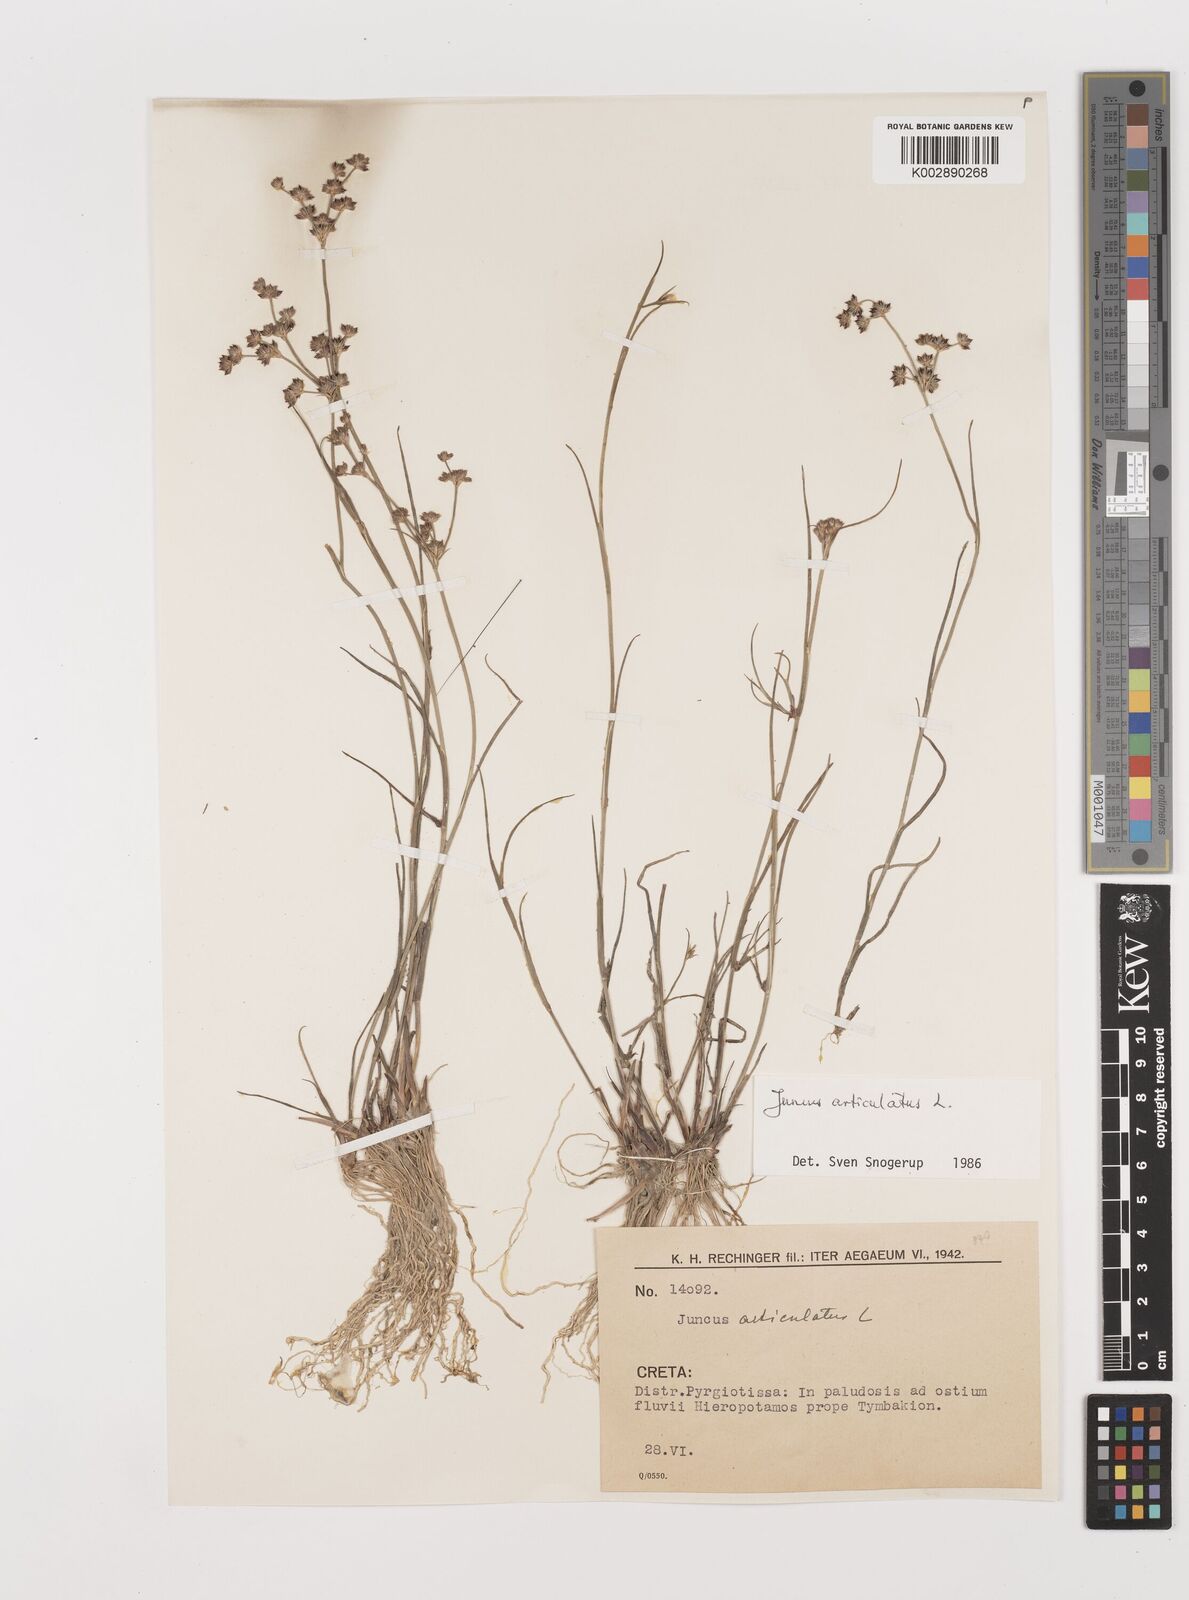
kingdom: Plantae
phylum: Tracheophyta
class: Liliopsida
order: Poales
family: Juncaceae
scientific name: Juncaceae
